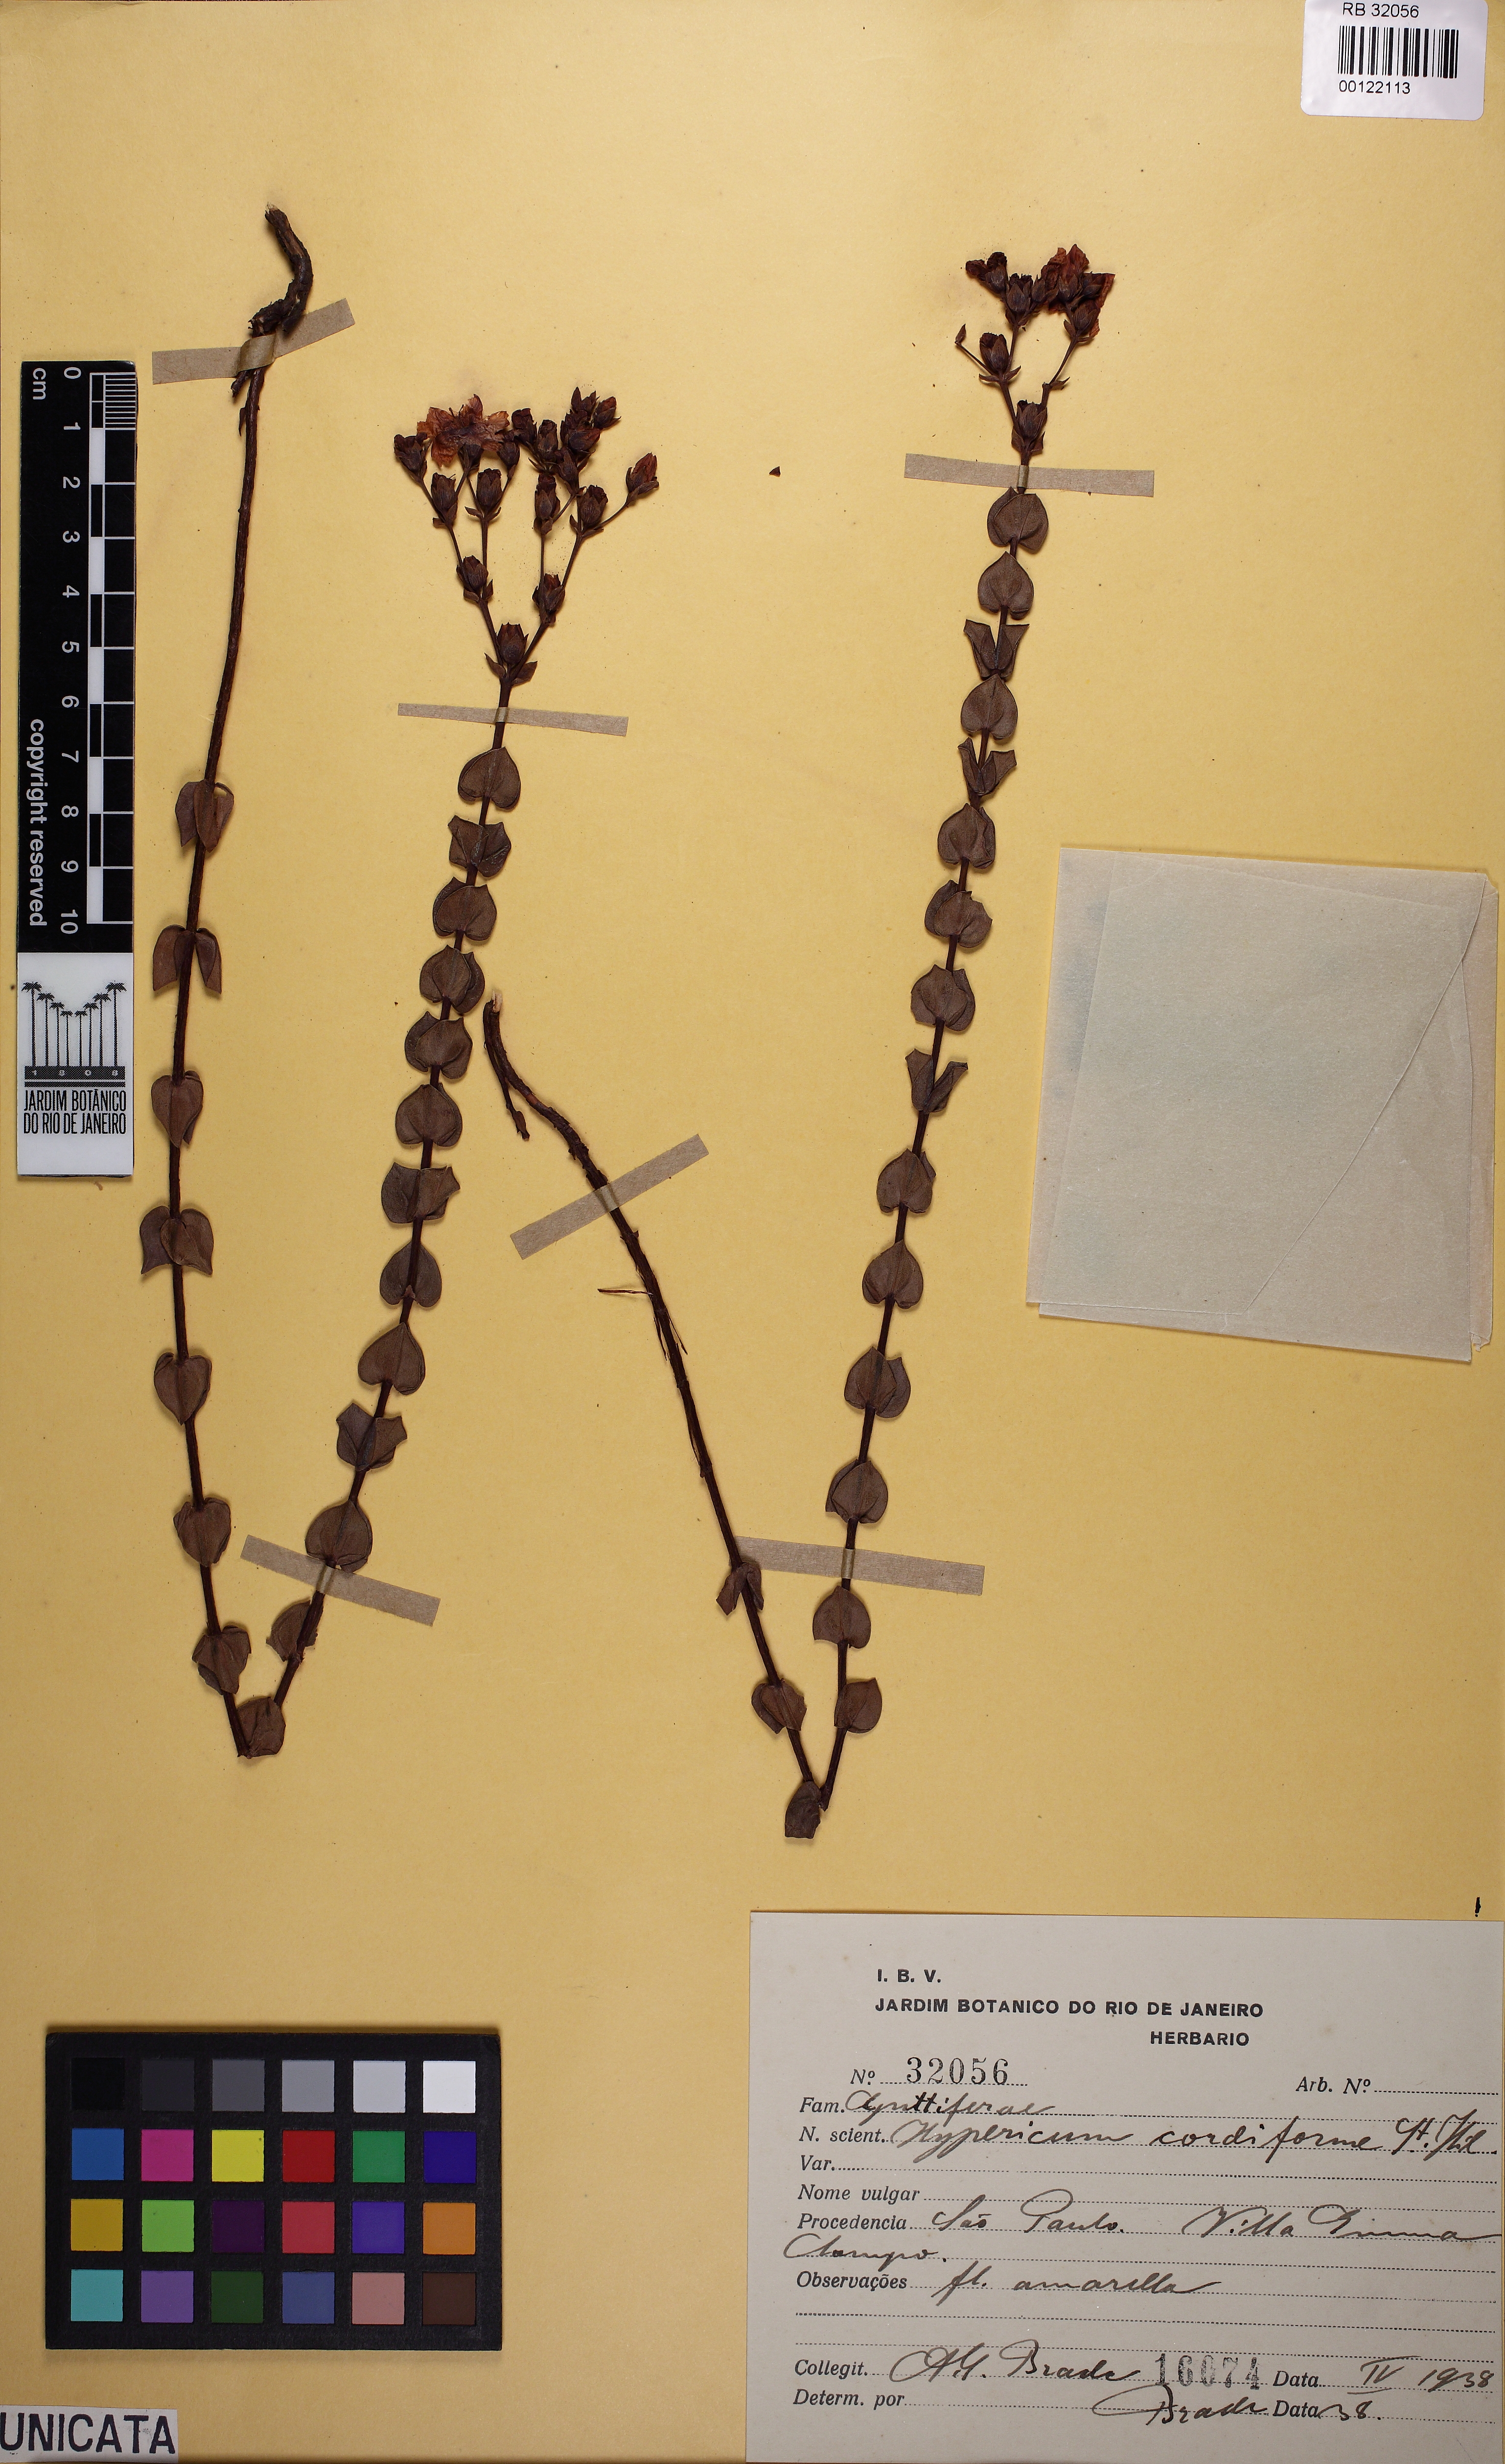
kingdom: Plantae
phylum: Tracheophyta
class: Magnoliopsida
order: Malpighiales
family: Hypericaceae
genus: Hypericum
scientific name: Hypericum cordiforme
